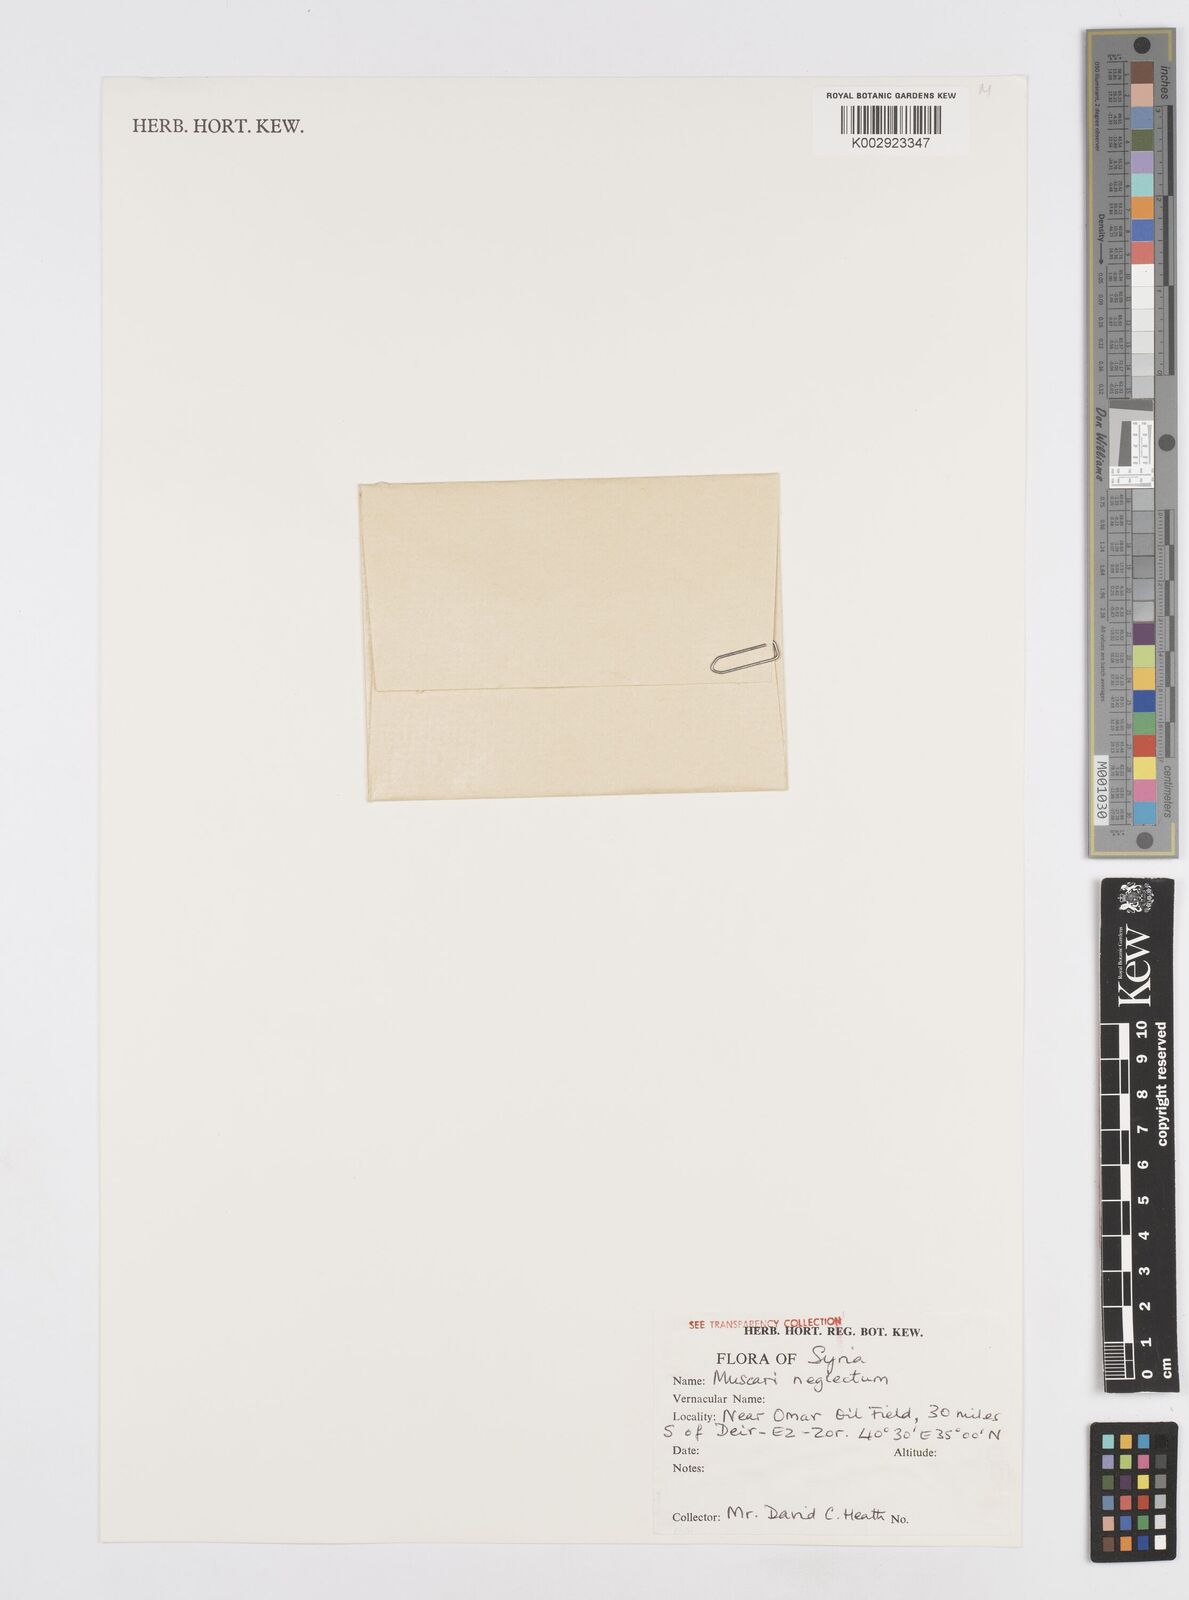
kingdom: Plantae
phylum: Tracheophyta
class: Liliopsida
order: Asparagales
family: Asparagaceae
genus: Muscarimia
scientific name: Muscarimia muscari
